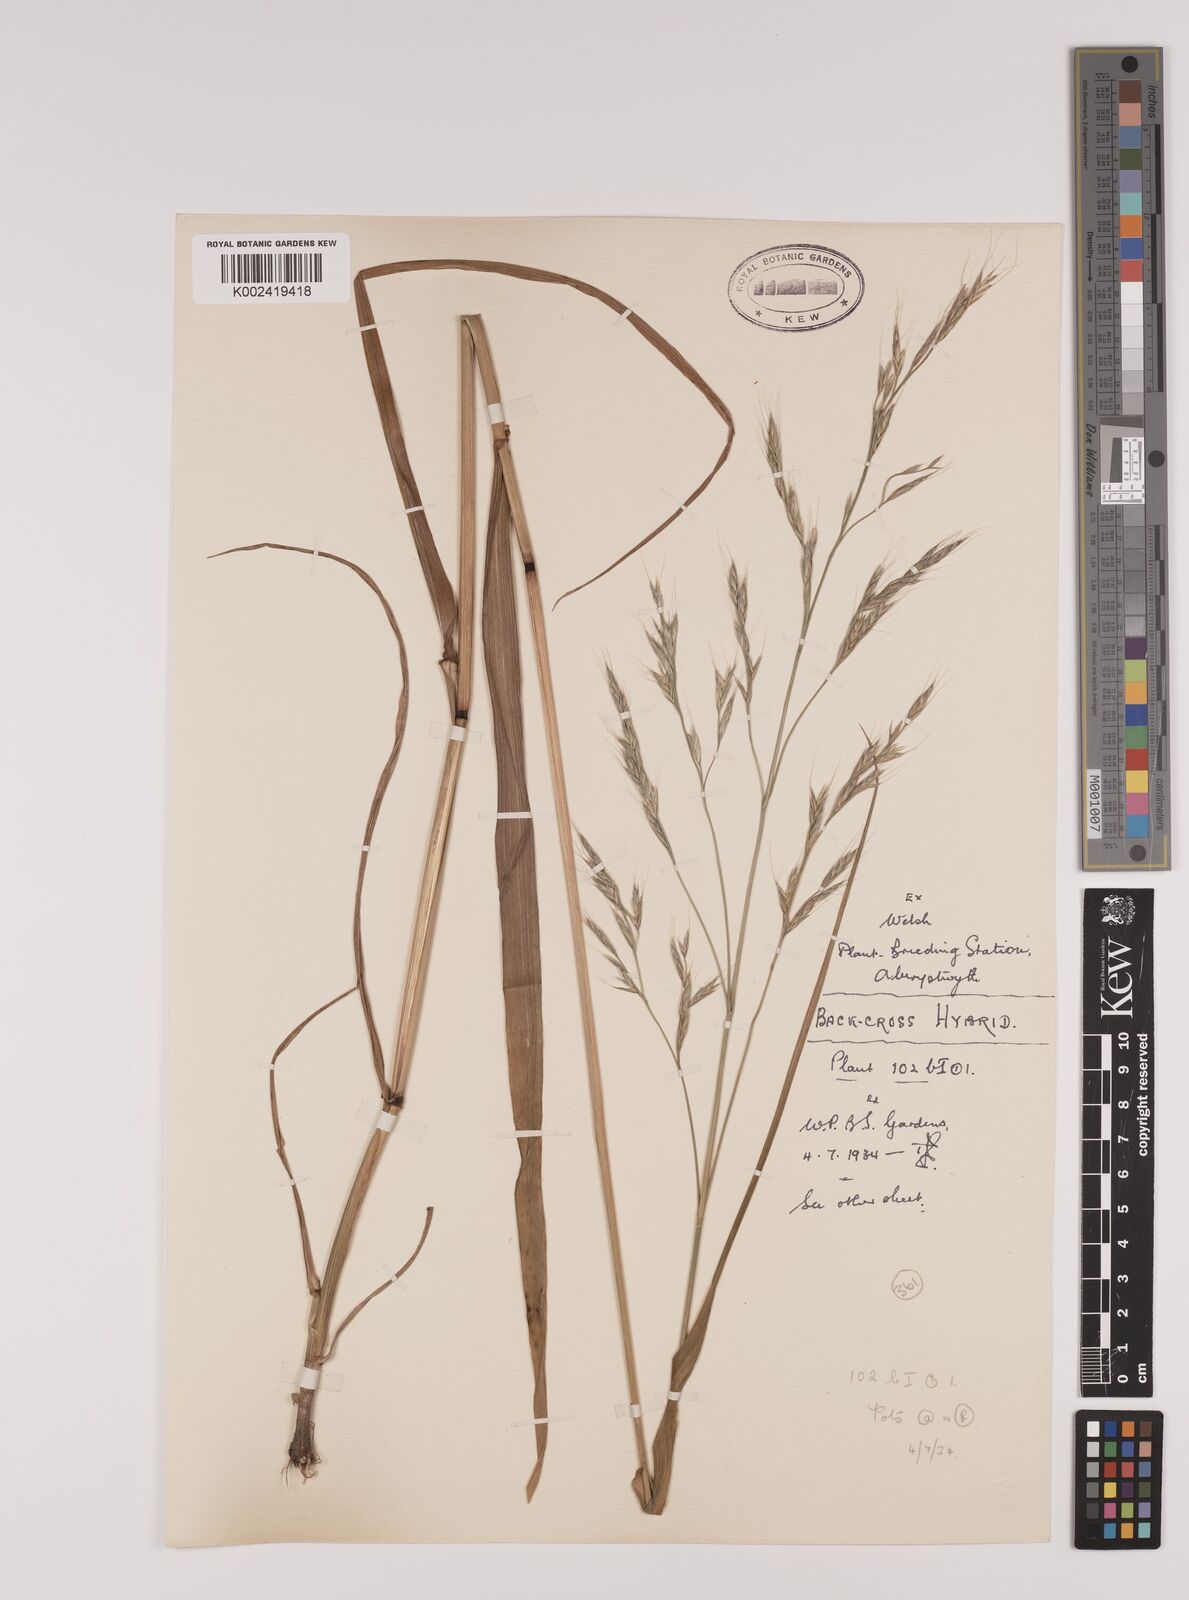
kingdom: Plantae
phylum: Tracheophyta
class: Liliopsida
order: Poales
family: Poaceae
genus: Lolium
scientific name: Lolium giganteum
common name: Giant fescue
